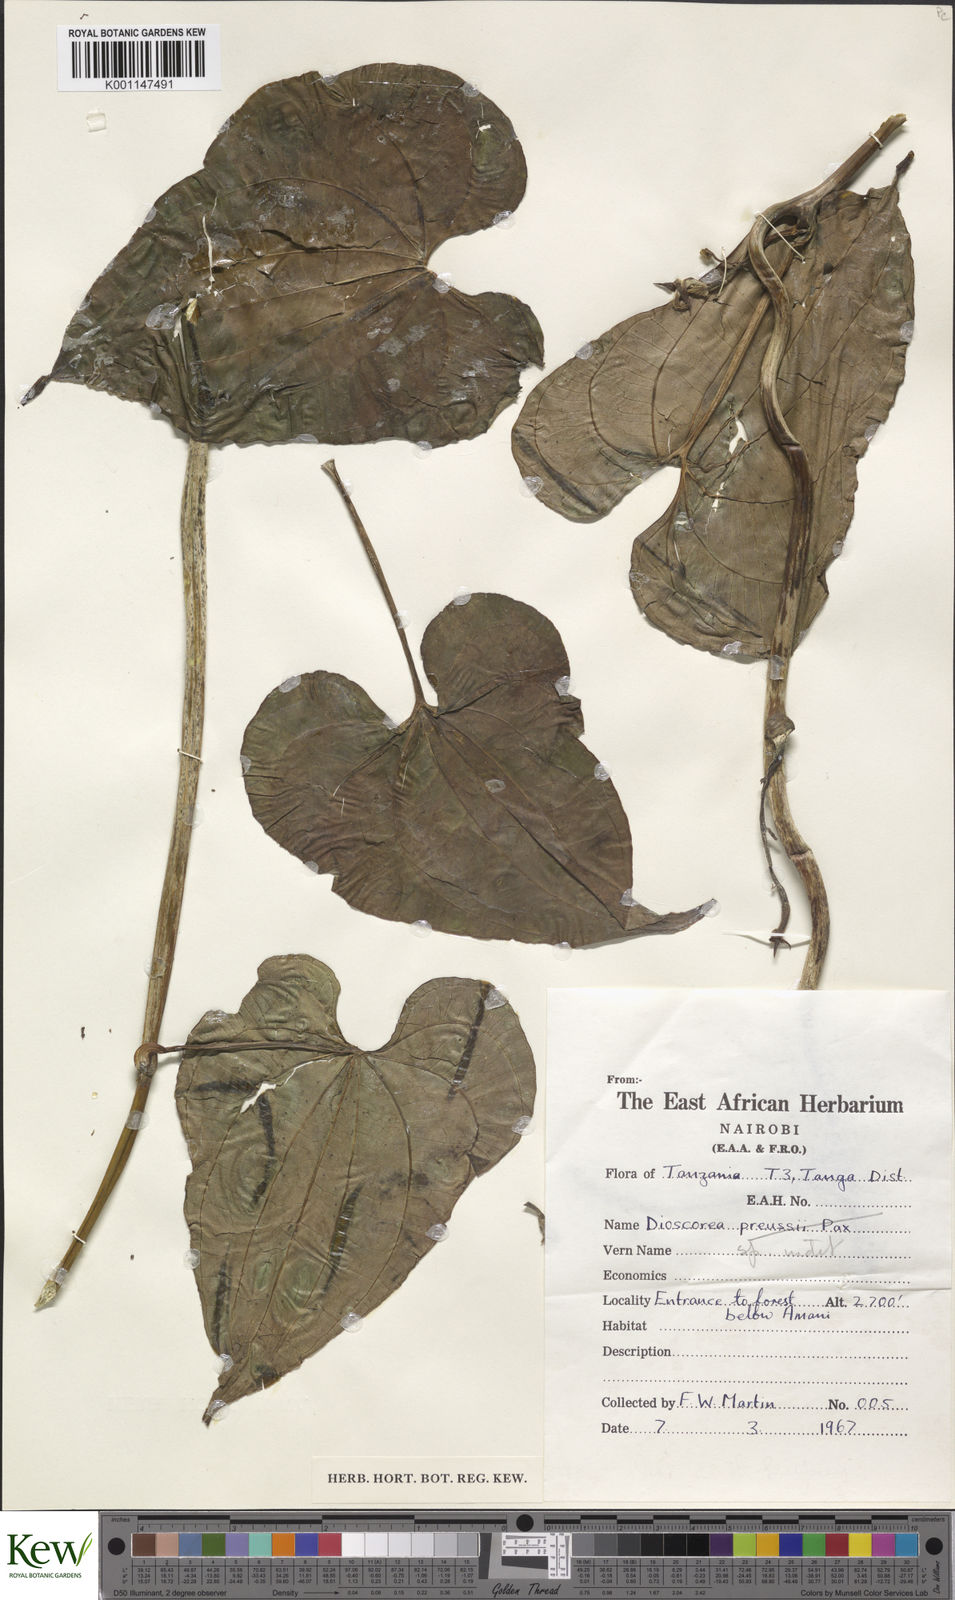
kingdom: Plantae
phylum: Tracheophyta
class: Liliopsida
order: Dioscoreales
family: Dioscoreaceae
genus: Dioscorea
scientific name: Dioscorea
